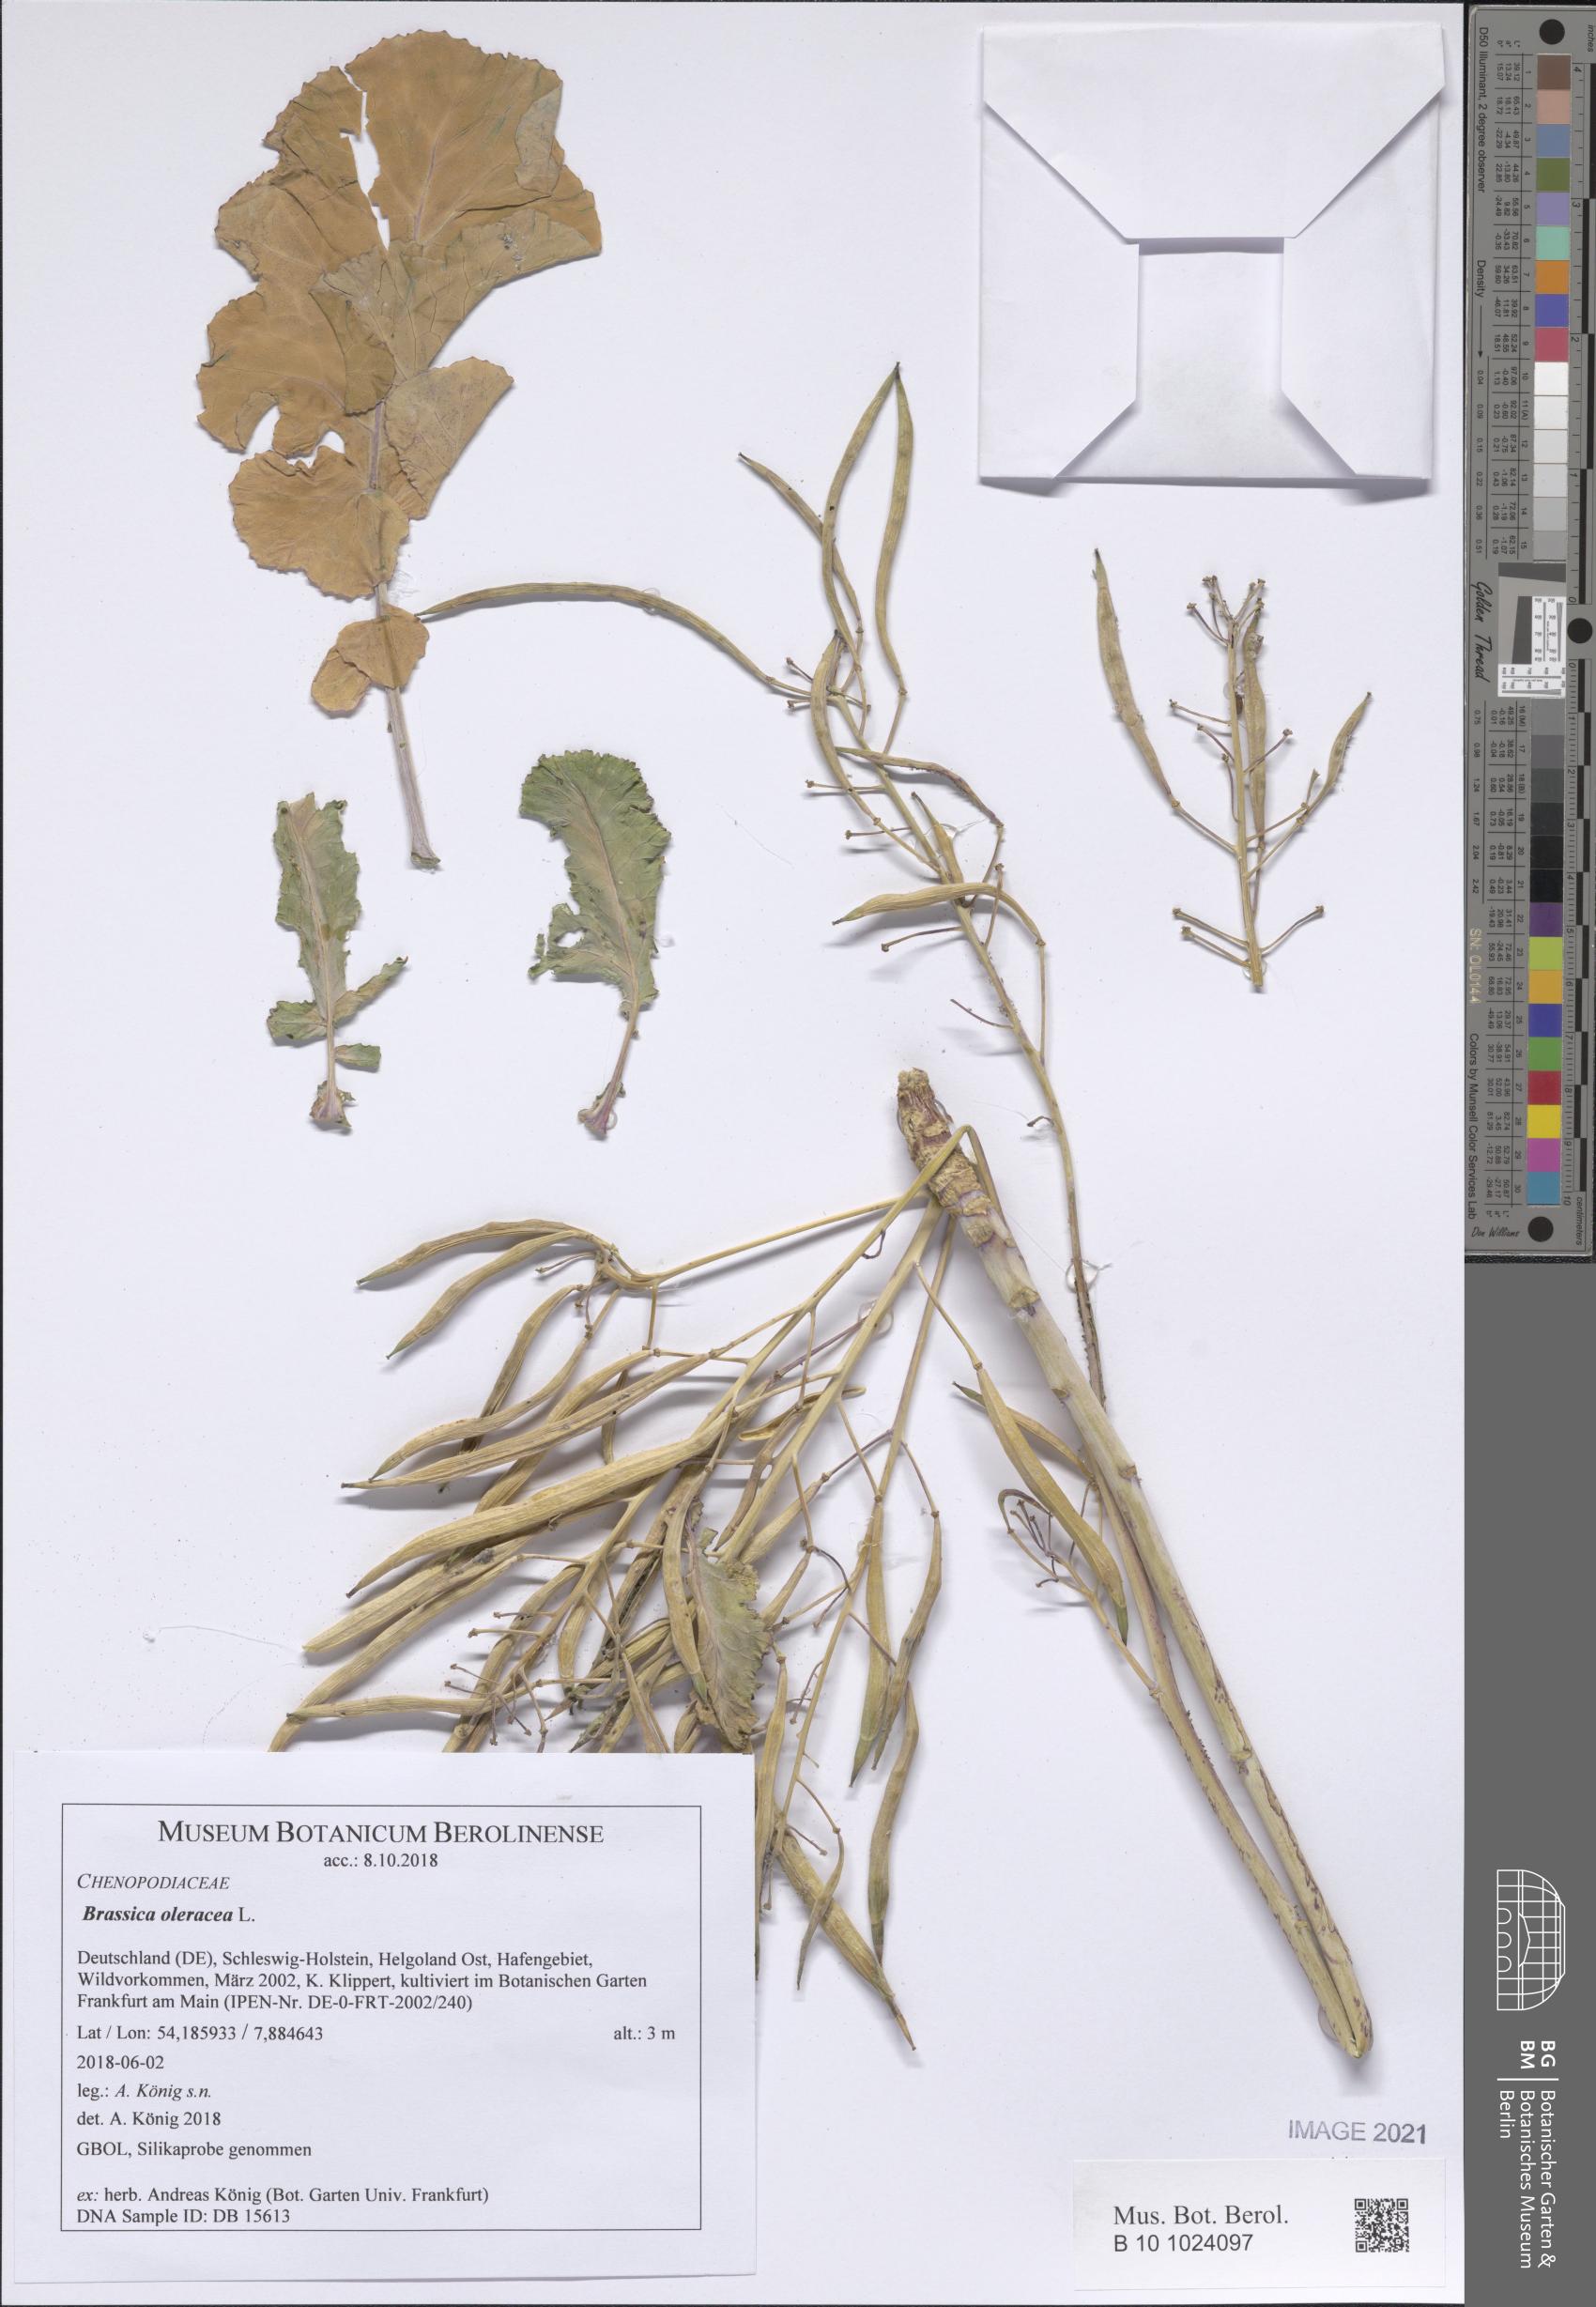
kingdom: Plantae
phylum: Tracheophyta
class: Magnoliopsida
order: Brassicales
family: Brassicaceae
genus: Brassica
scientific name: Brassica oleracea
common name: Cabbage
